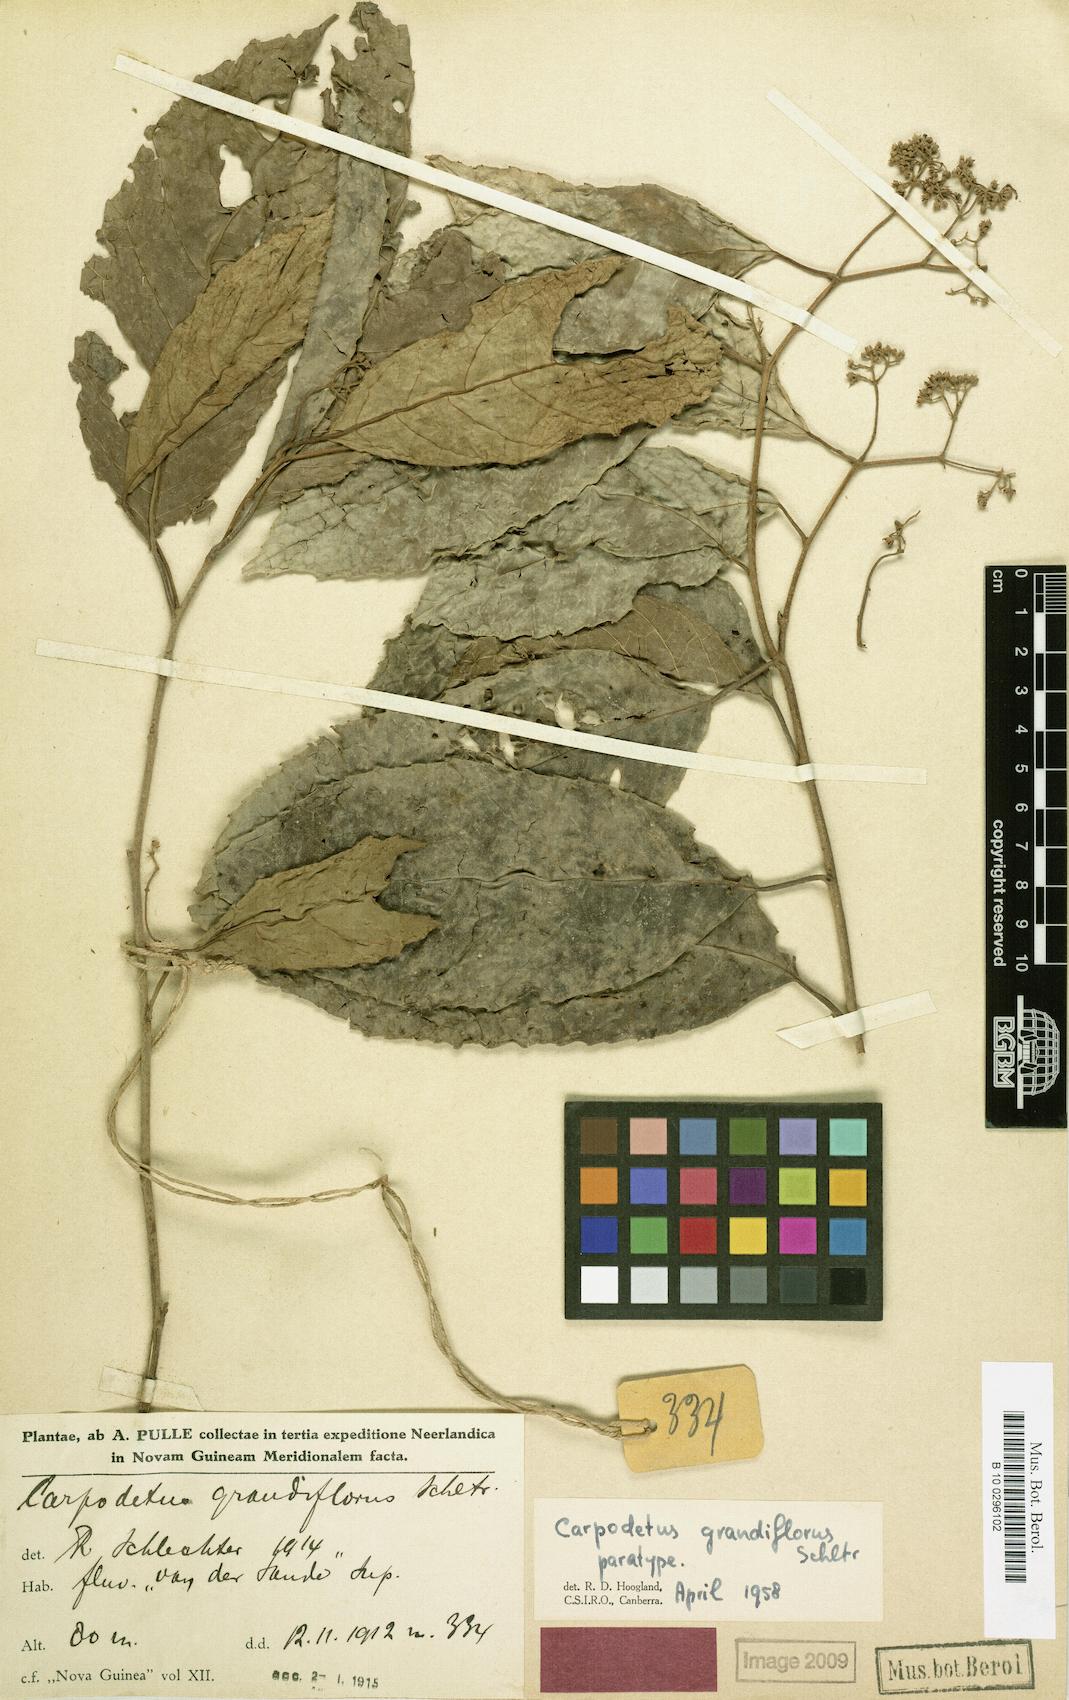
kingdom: Plantae
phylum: Tracheophyta
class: Magnoliopsida
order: Asterales
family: Rousseaceae
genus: Carpodetus
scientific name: Carpodetus arboreus
